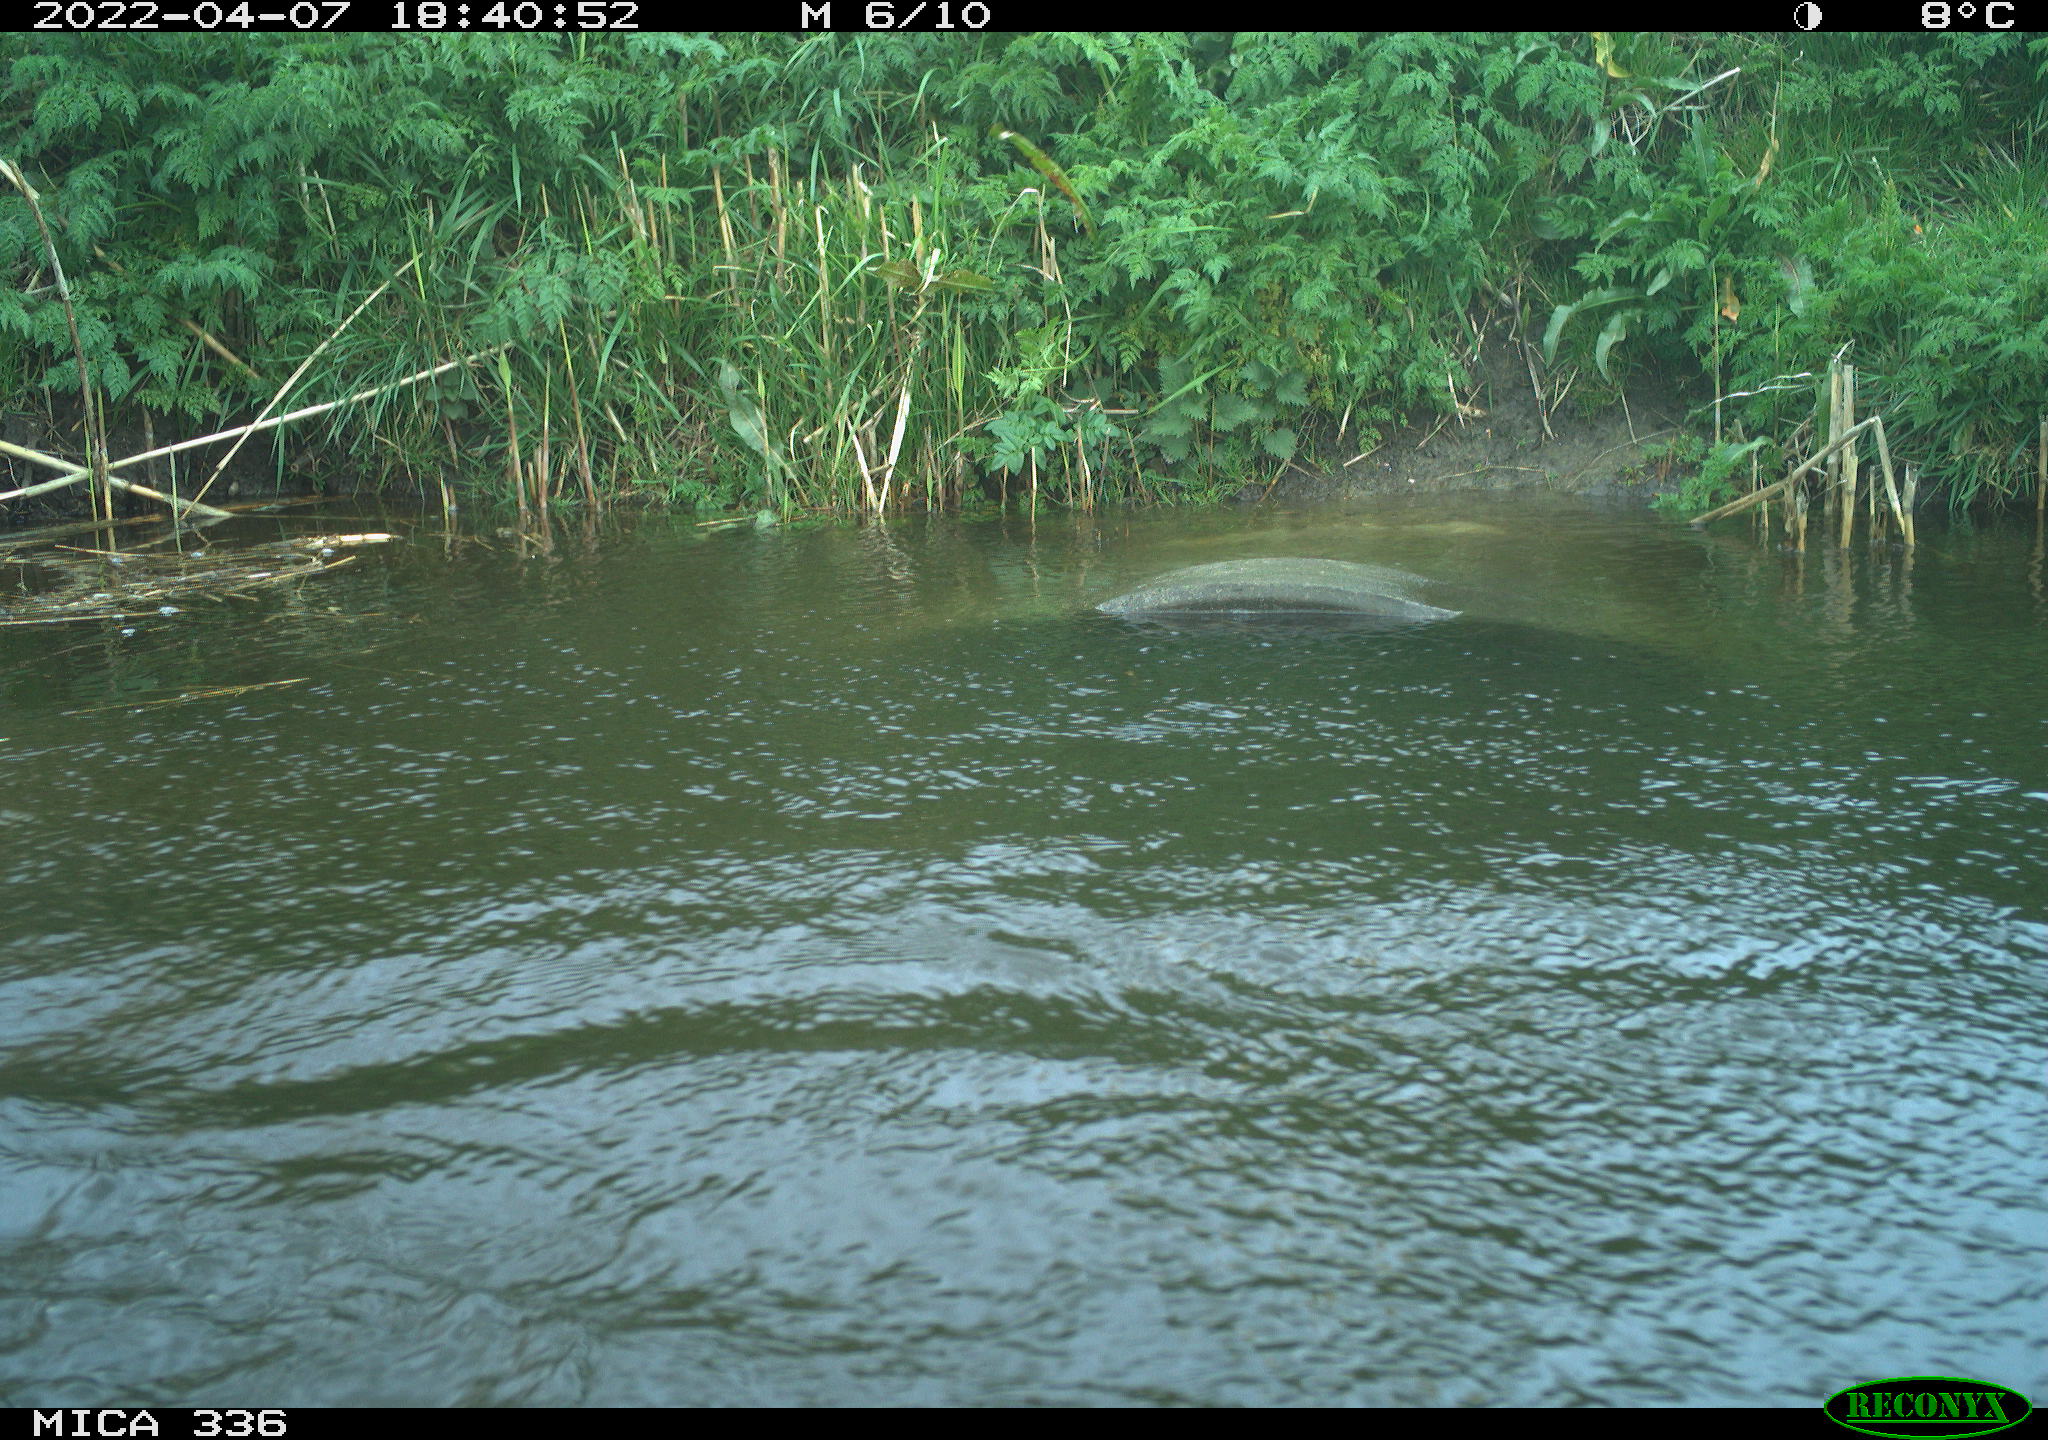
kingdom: Animalia
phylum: Chordata
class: Aves
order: Suliformes
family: Phalacrocoracidae
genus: Phalacrocorax
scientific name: Phalacrocorax carbo
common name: Great cormorant
